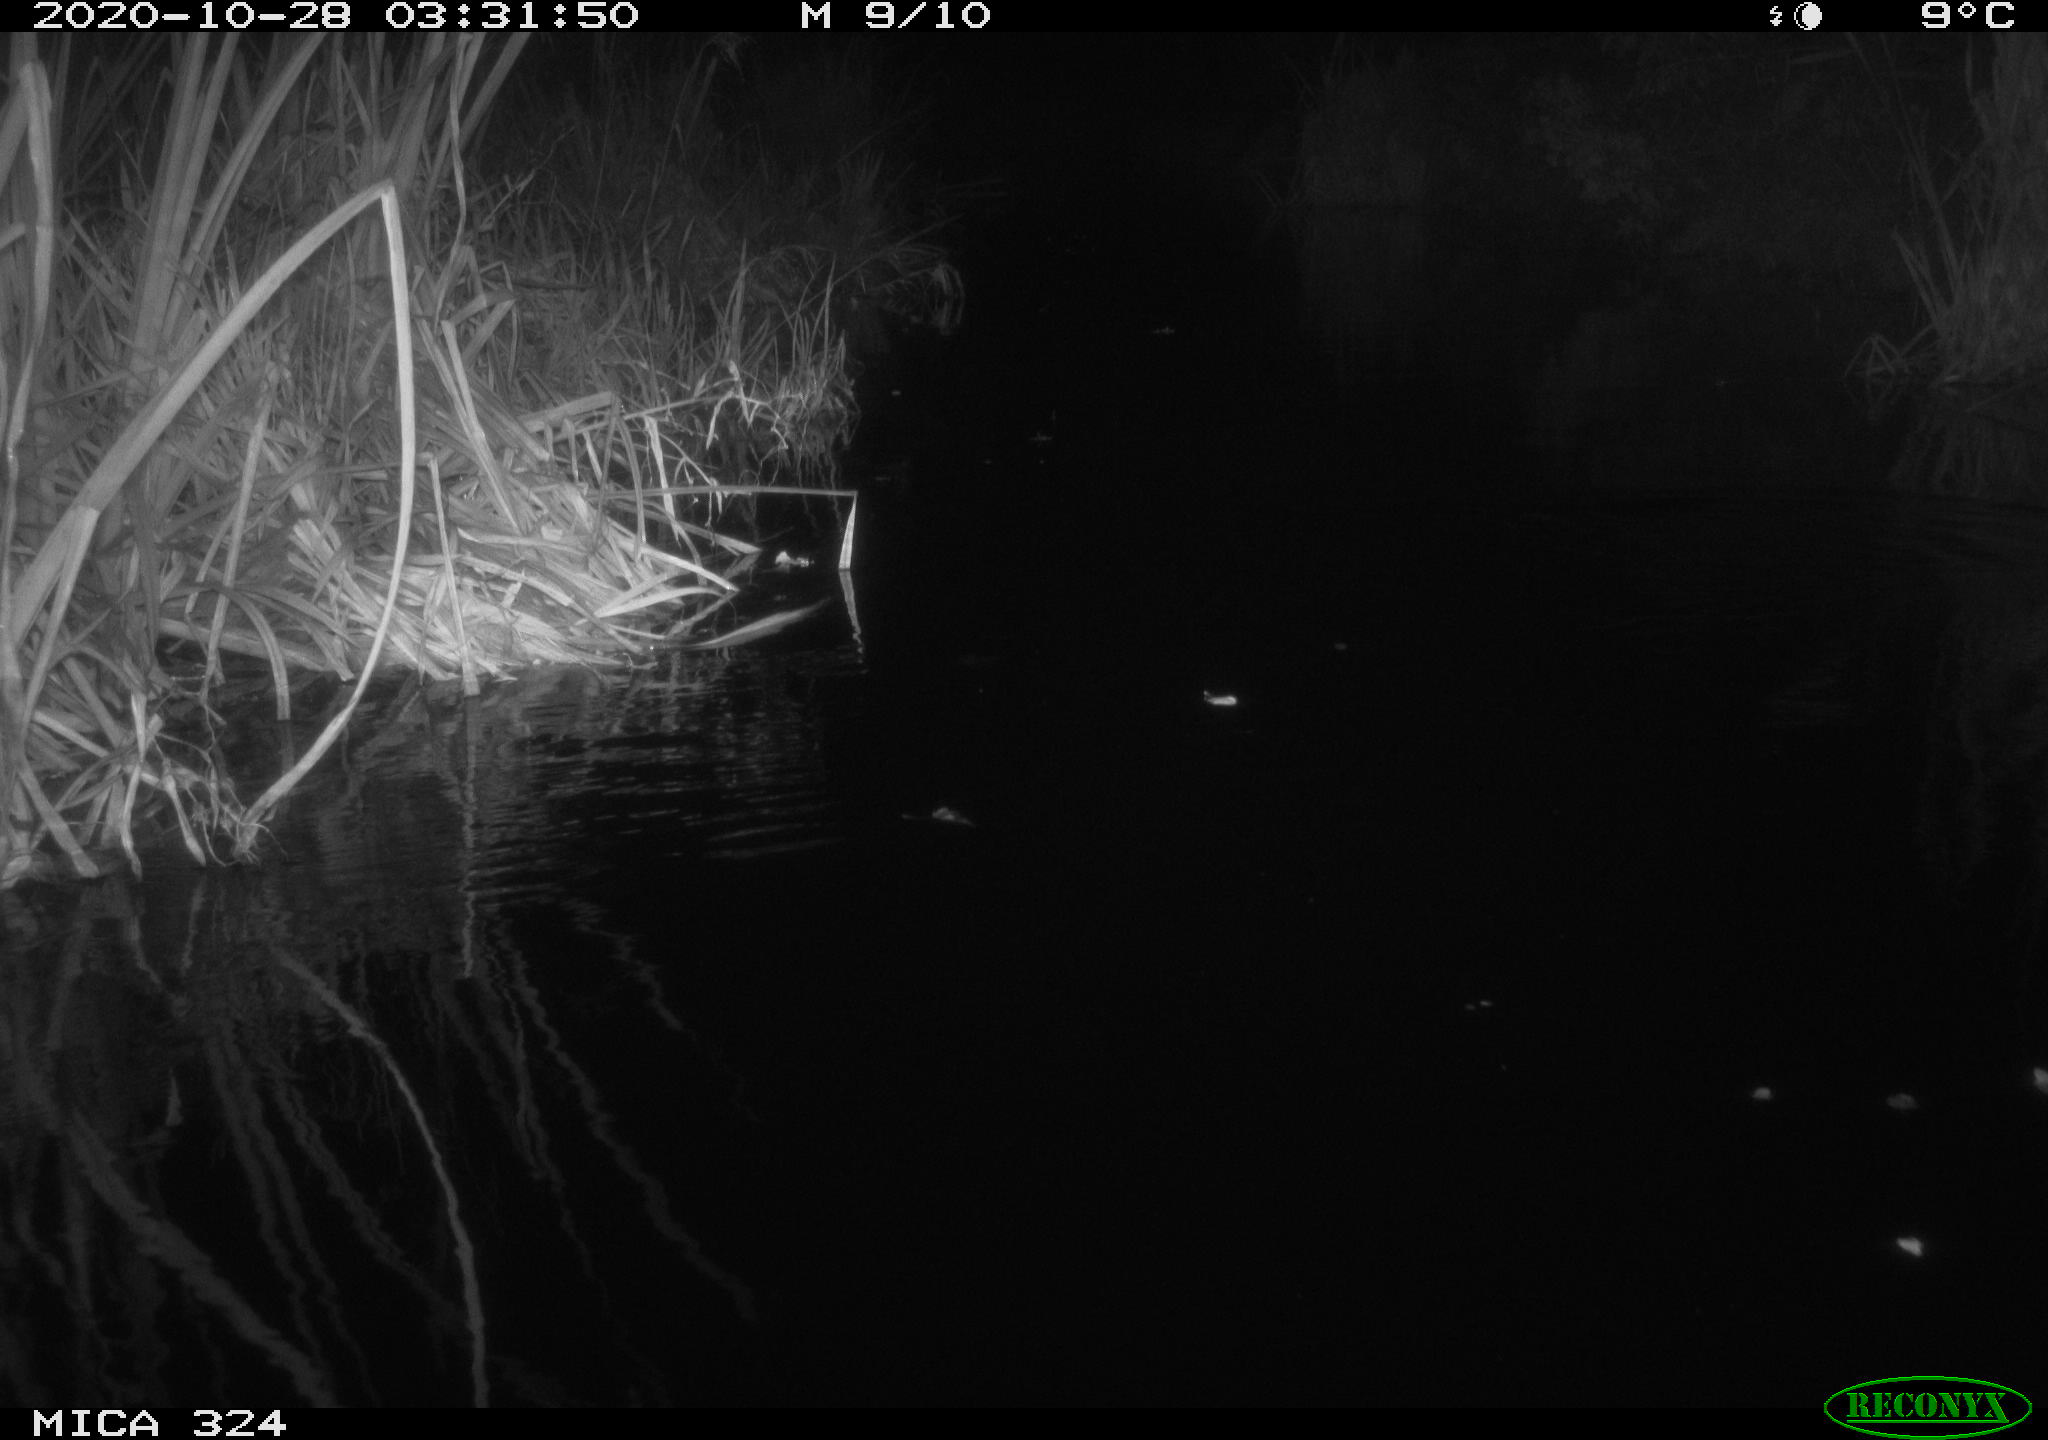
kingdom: Animalia
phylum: Chordata
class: Mammalia
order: Rodentia
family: Muridae
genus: Rattus
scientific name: Rattus norvegicus
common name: Brown rat
